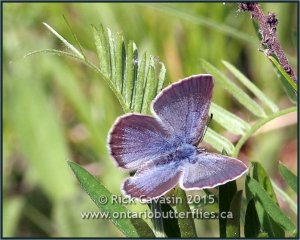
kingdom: Animalia
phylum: Arthropoda
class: Insecta
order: Lepidoptera
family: Lycaenidae
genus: Glaucopsyche
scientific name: Glaucopsyche lygdamus
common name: Silvery Blue
